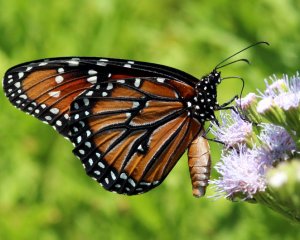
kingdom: Animalia
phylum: Arthropoda
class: Insecta
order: Lepidoptera
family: Nymphalidae
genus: Danaus
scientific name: Danaus gilippus
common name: Queen
